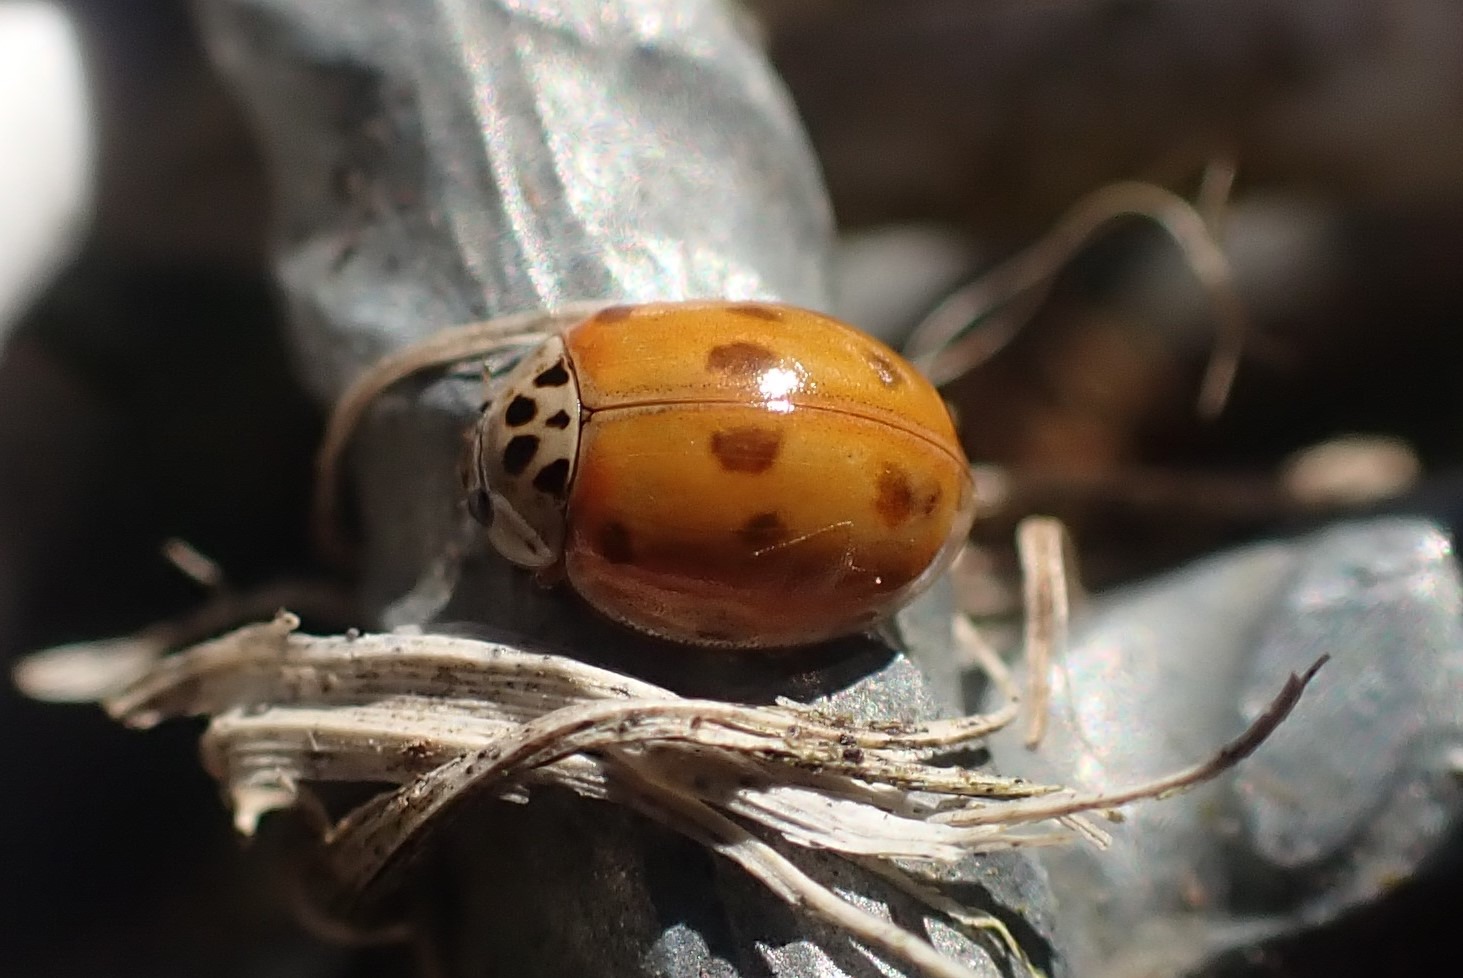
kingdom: Animalia
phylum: Arthropoda
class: Insecta
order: Coleoptera
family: Coccinellidae
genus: Adalia
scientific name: Adalia decempunctata
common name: Tiplettet mariehøne
